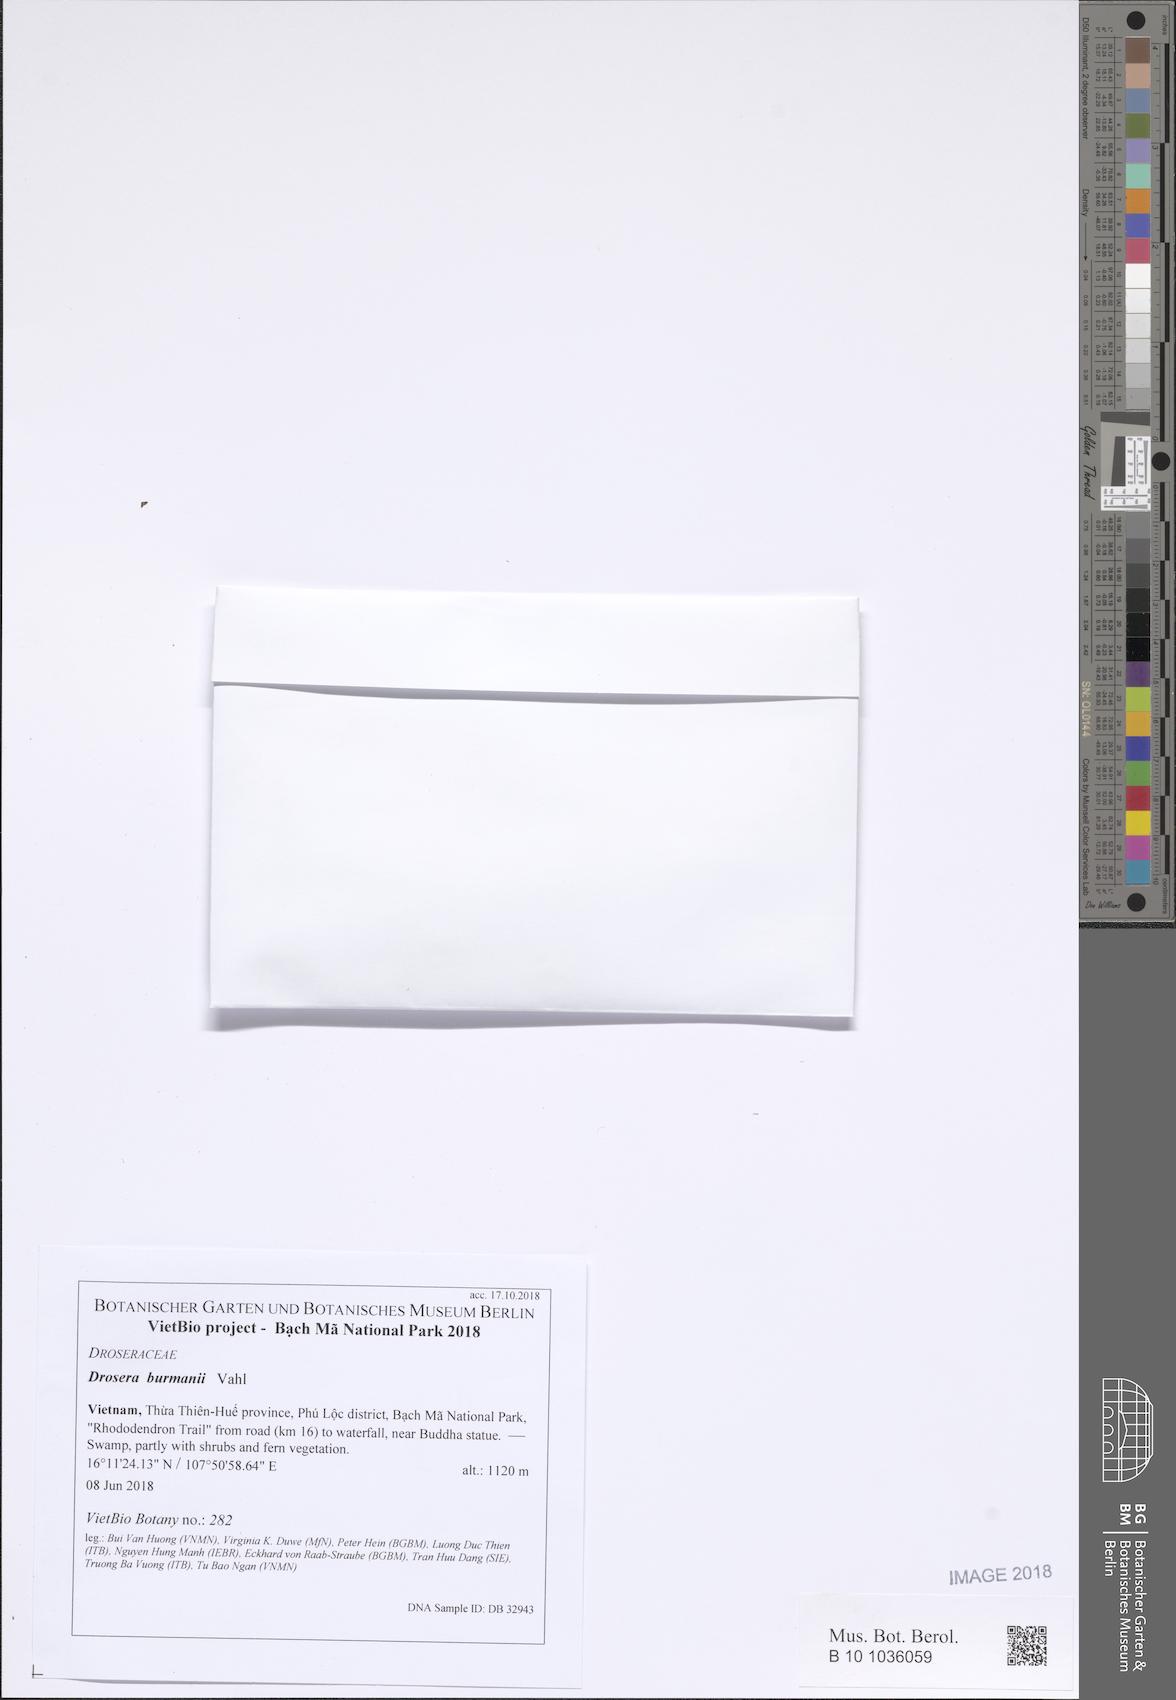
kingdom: Plantae
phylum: Tracheophyta
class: Magnoliopsida
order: Caryophyllales
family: Droseraceae
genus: Drosera
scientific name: Drosera burmannii
